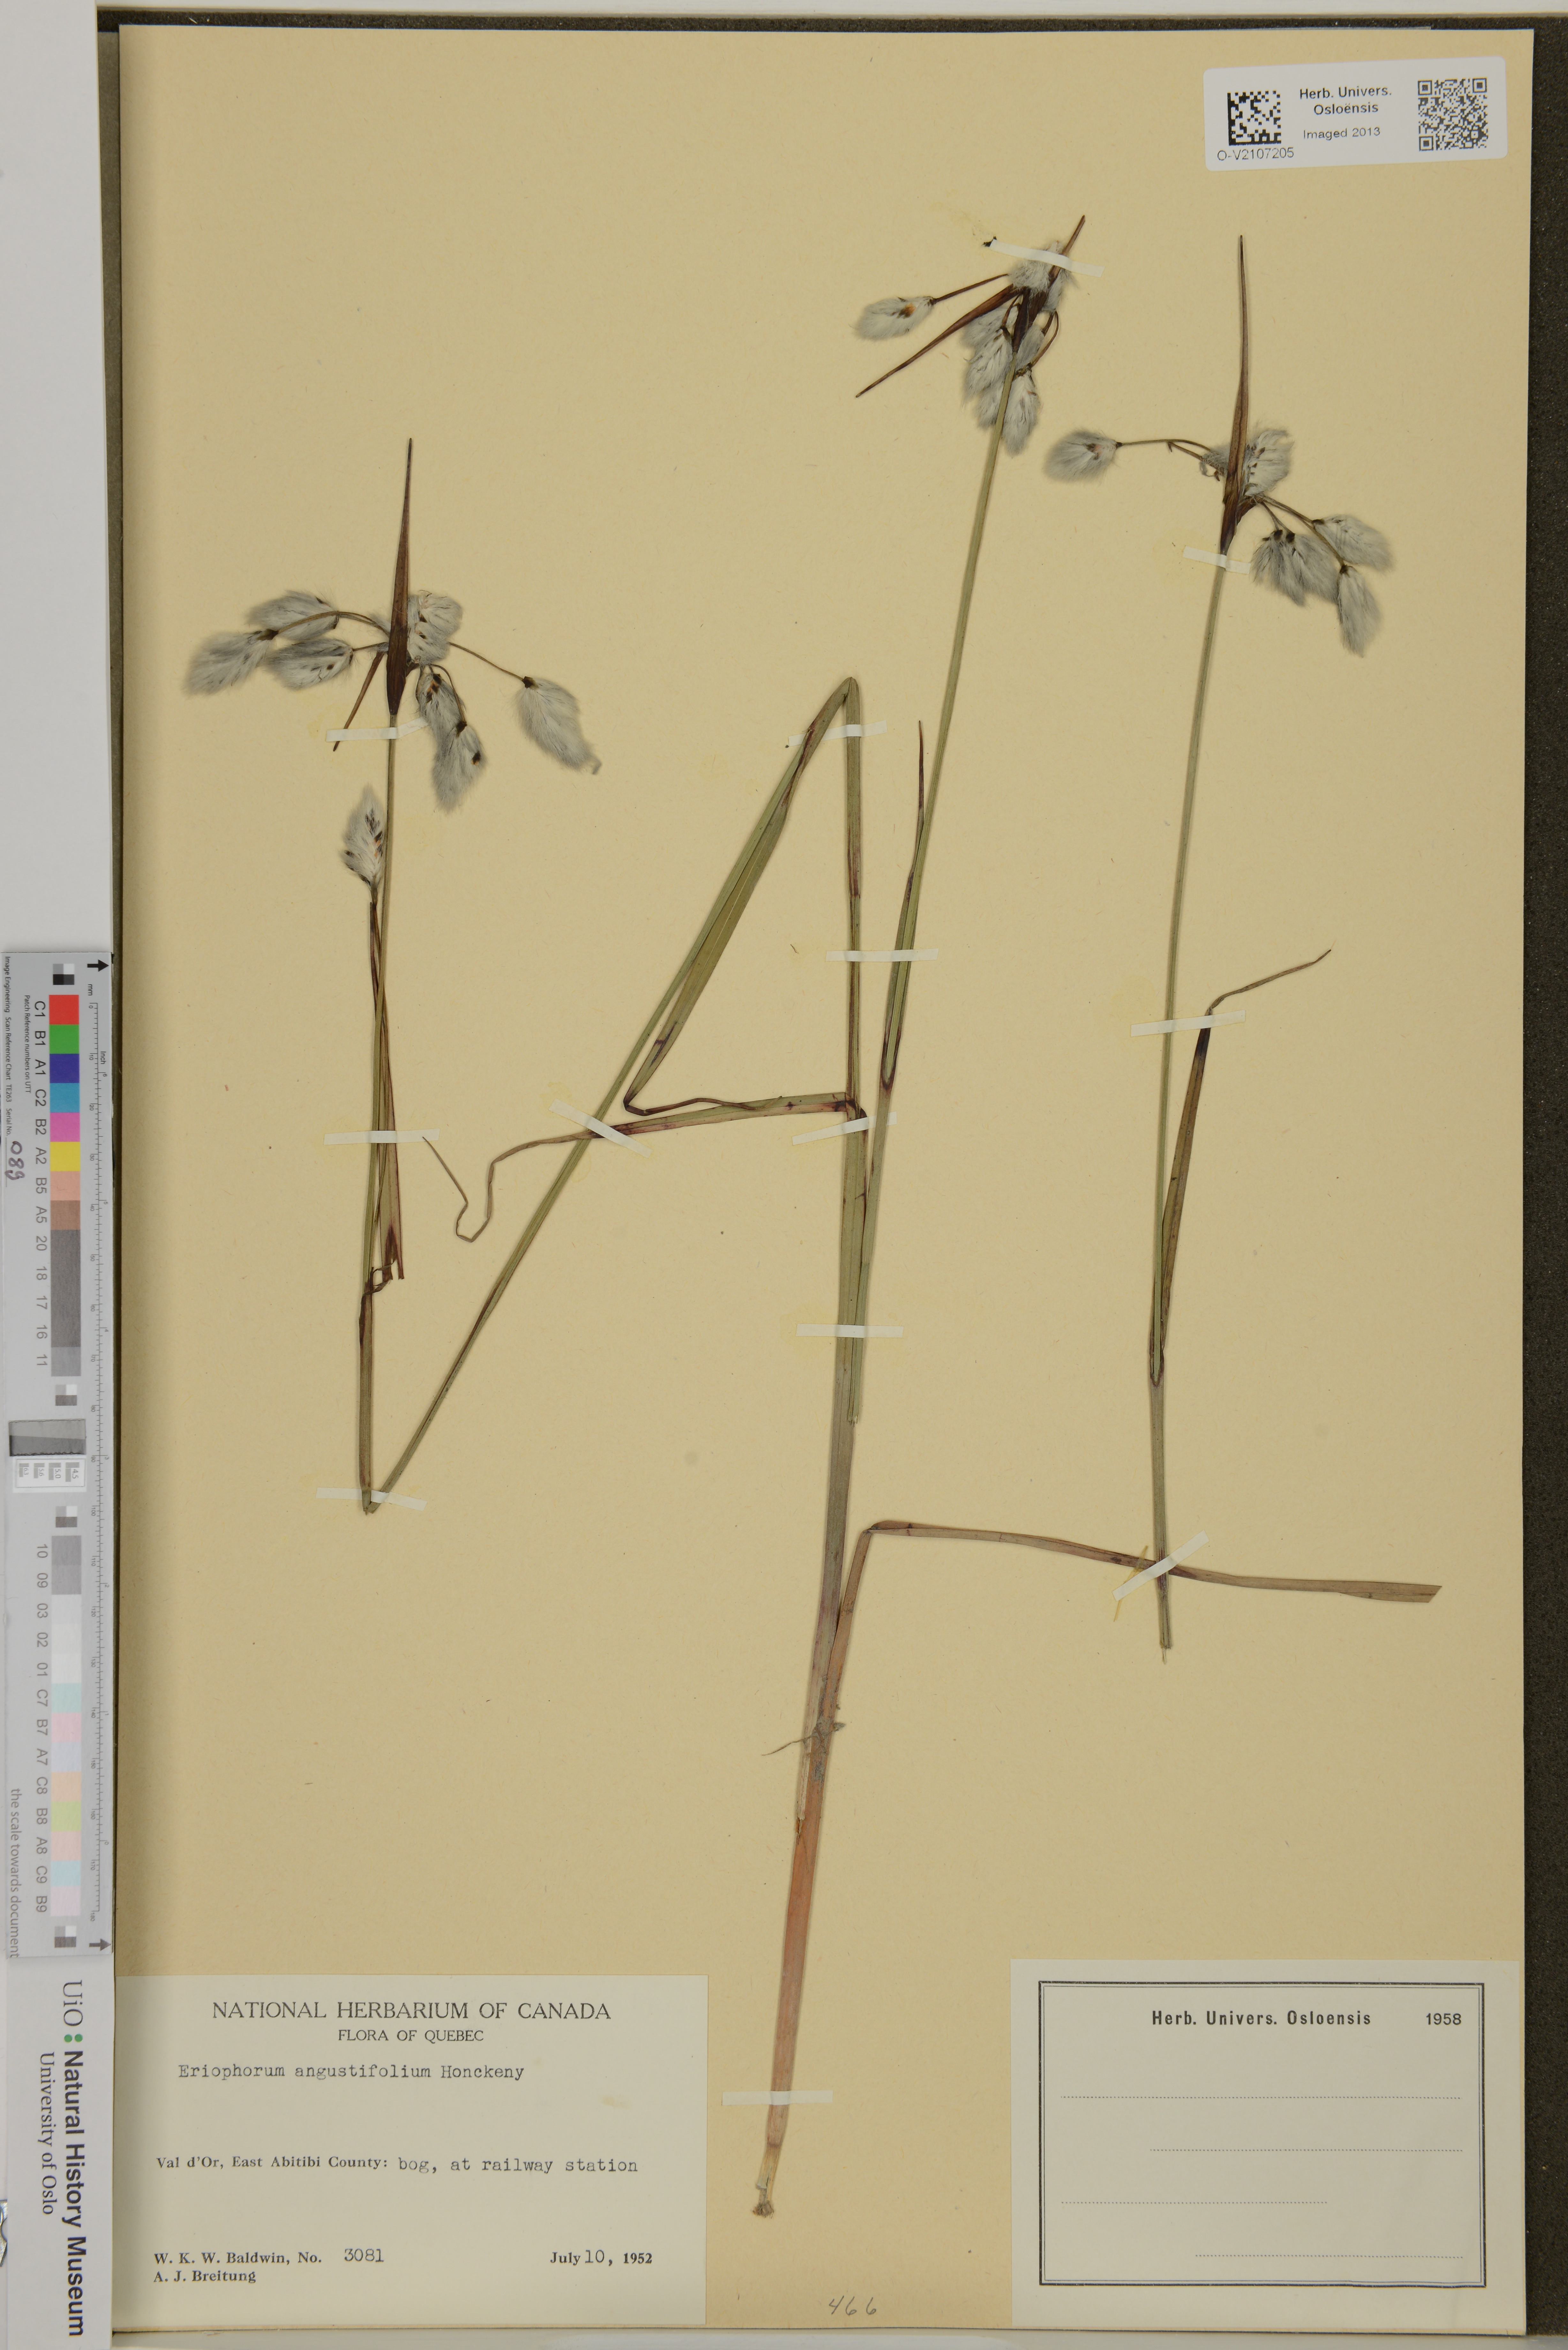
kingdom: Plantae
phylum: Tracheophyta
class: Liliopsida
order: Poales
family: Cyperaceae
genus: Eriophorum
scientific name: Eriophorum angustifolium
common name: Common cottongrass
